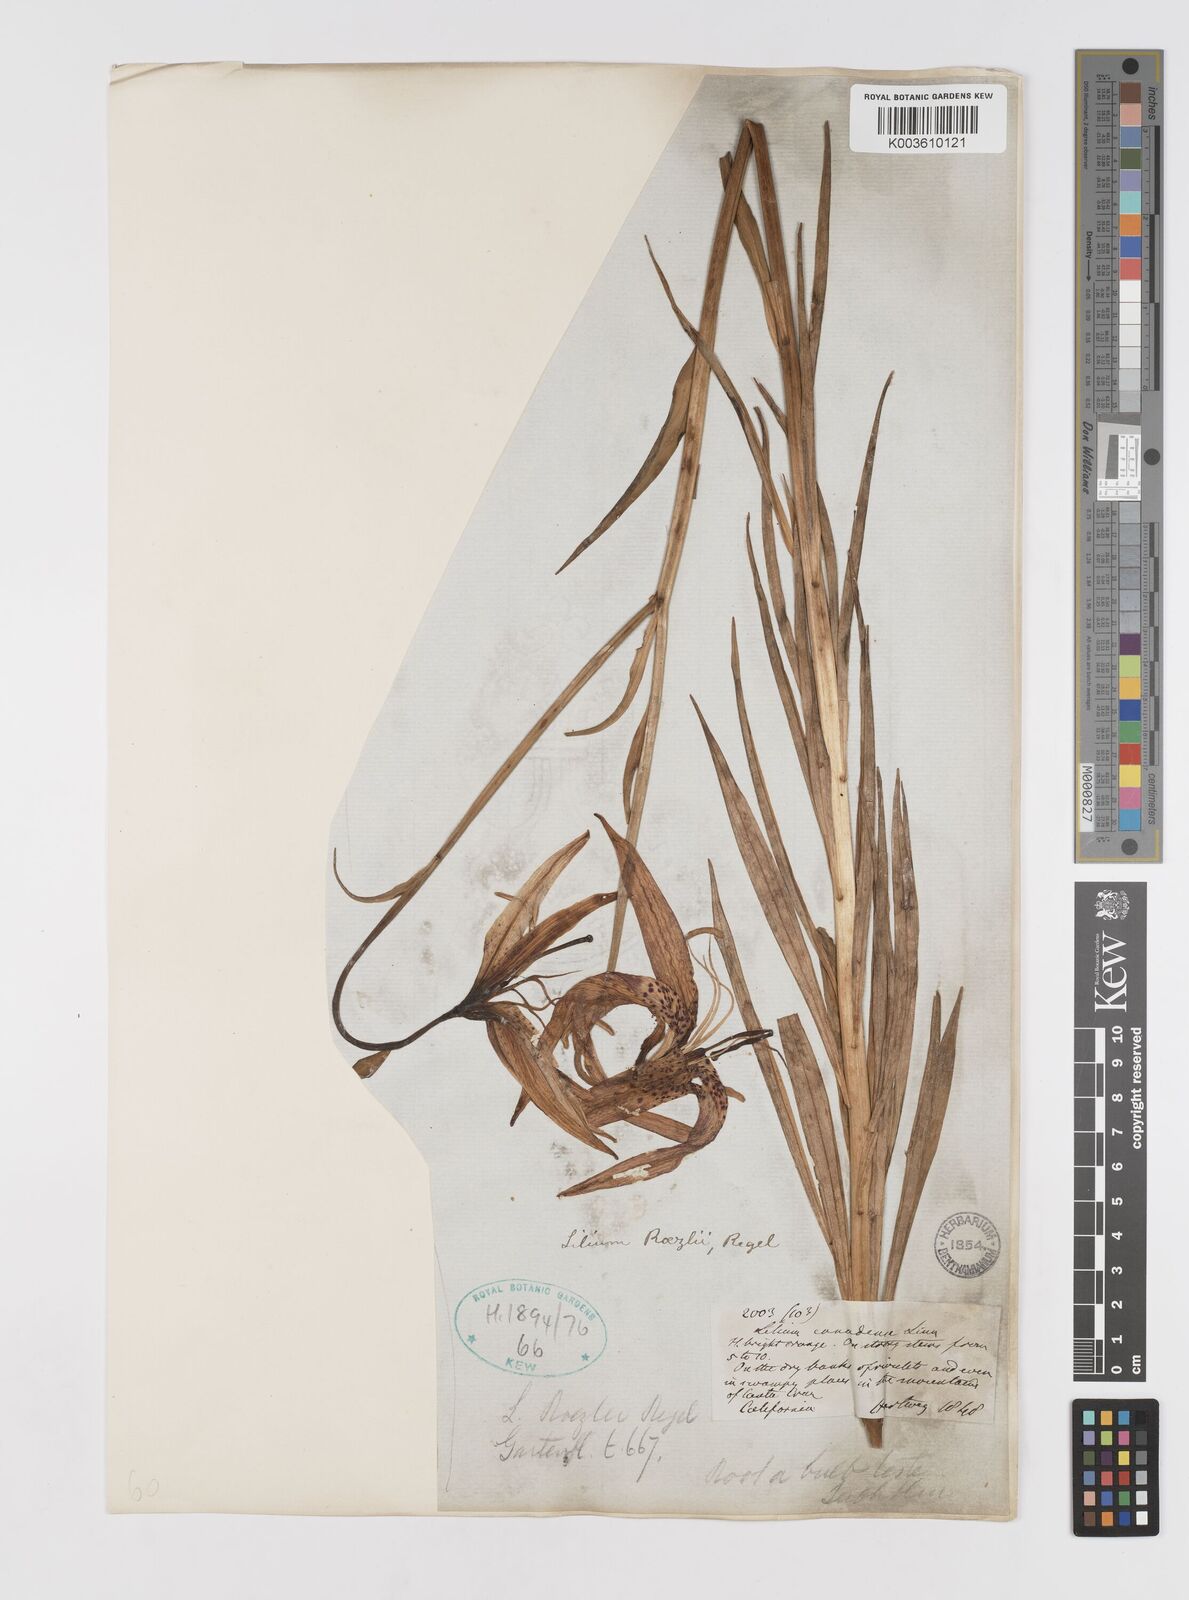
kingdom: Plantae
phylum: Tracheophyta
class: Liliopsida
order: Liliales
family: Liliaceae
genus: Lilium
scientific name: Lilium pardalinum
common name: Panther lily
